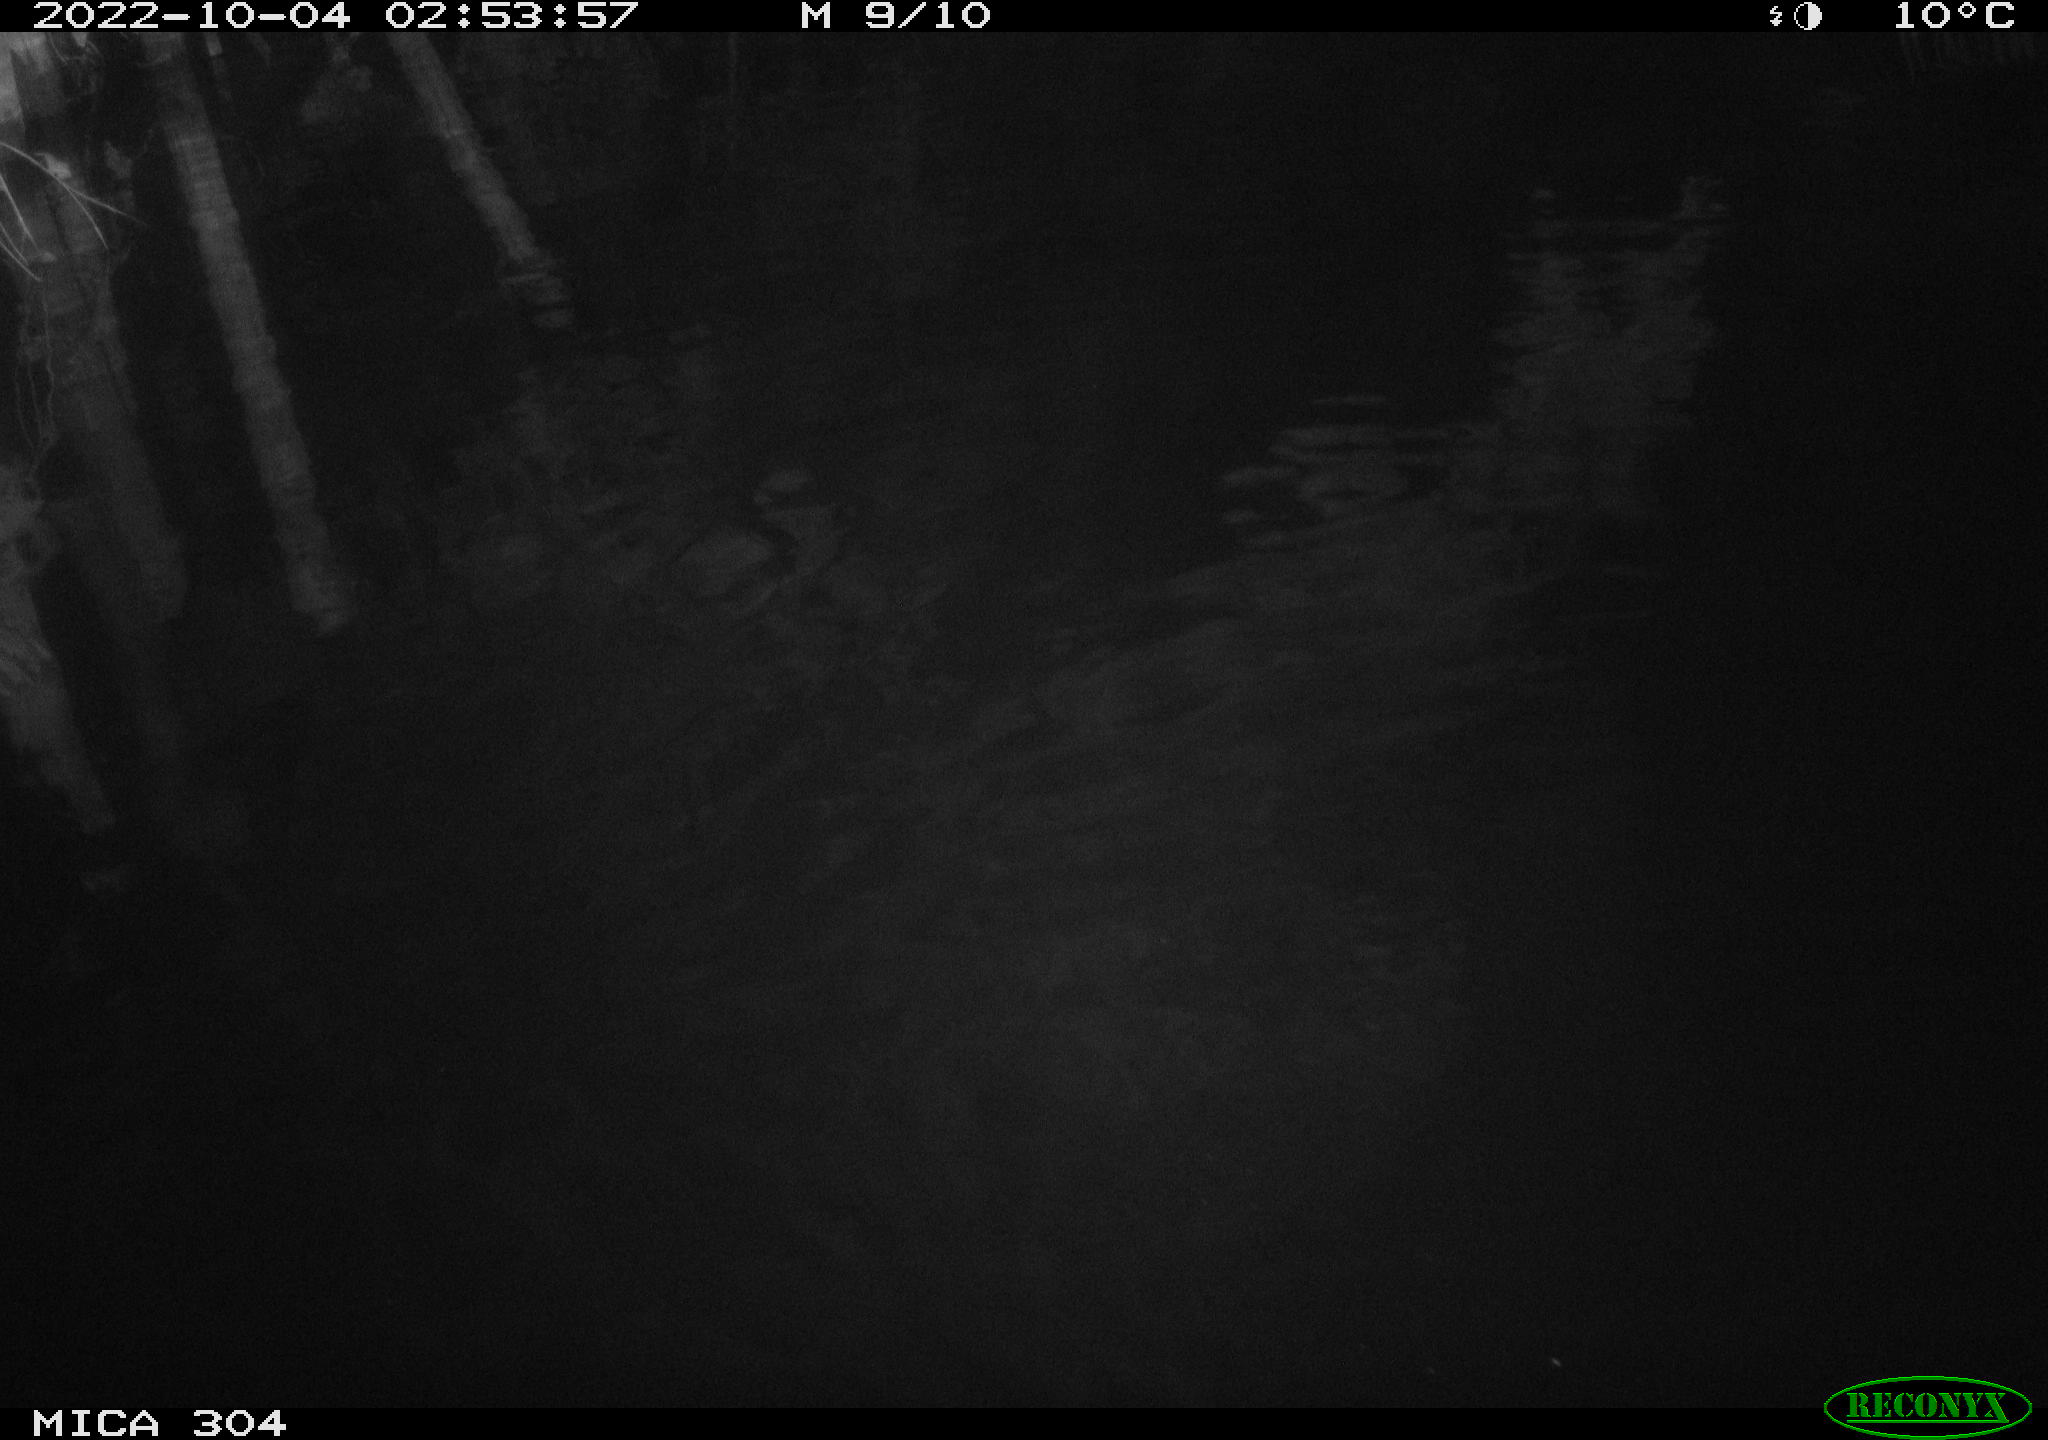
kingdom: Animalia
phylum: Chordata
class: Mammalia
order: Rodentia
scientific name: Rodentia
